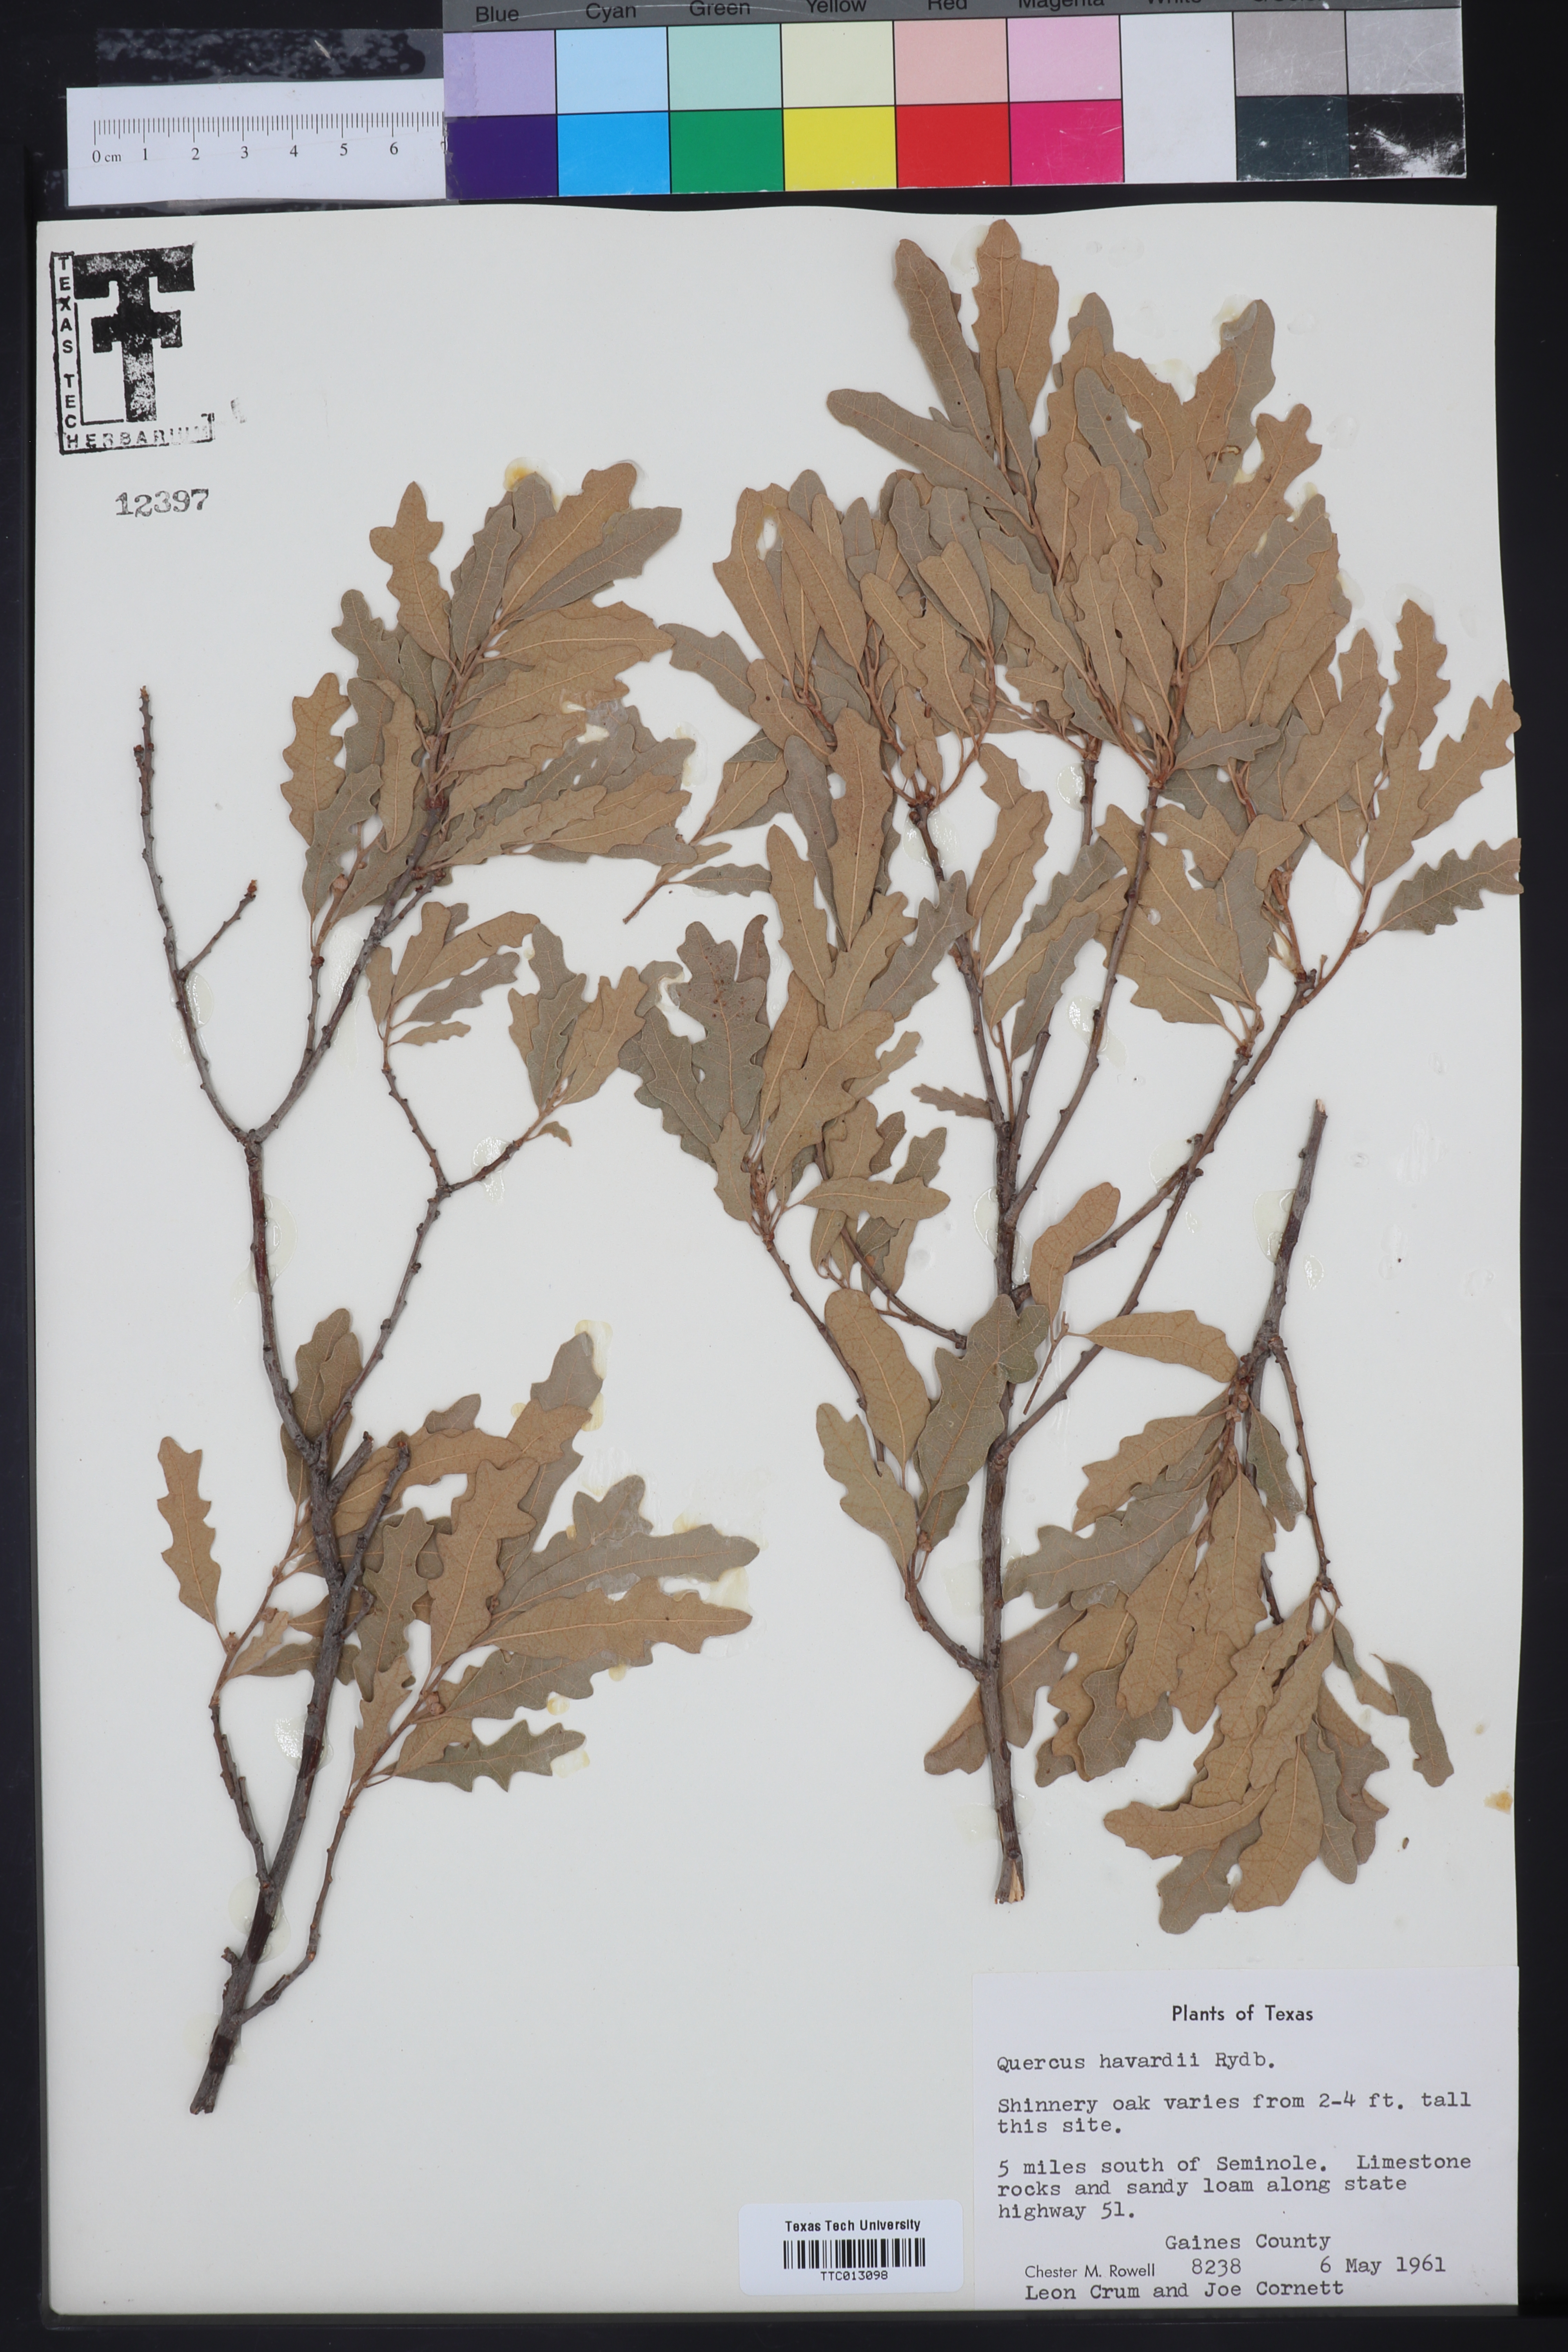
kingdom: Plantae
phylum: Tracheophyta
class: Magnoliopsida
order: Fagales
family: Fagaceae
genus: Quercus
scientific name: Quercus havardii
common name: Shinnery oak
